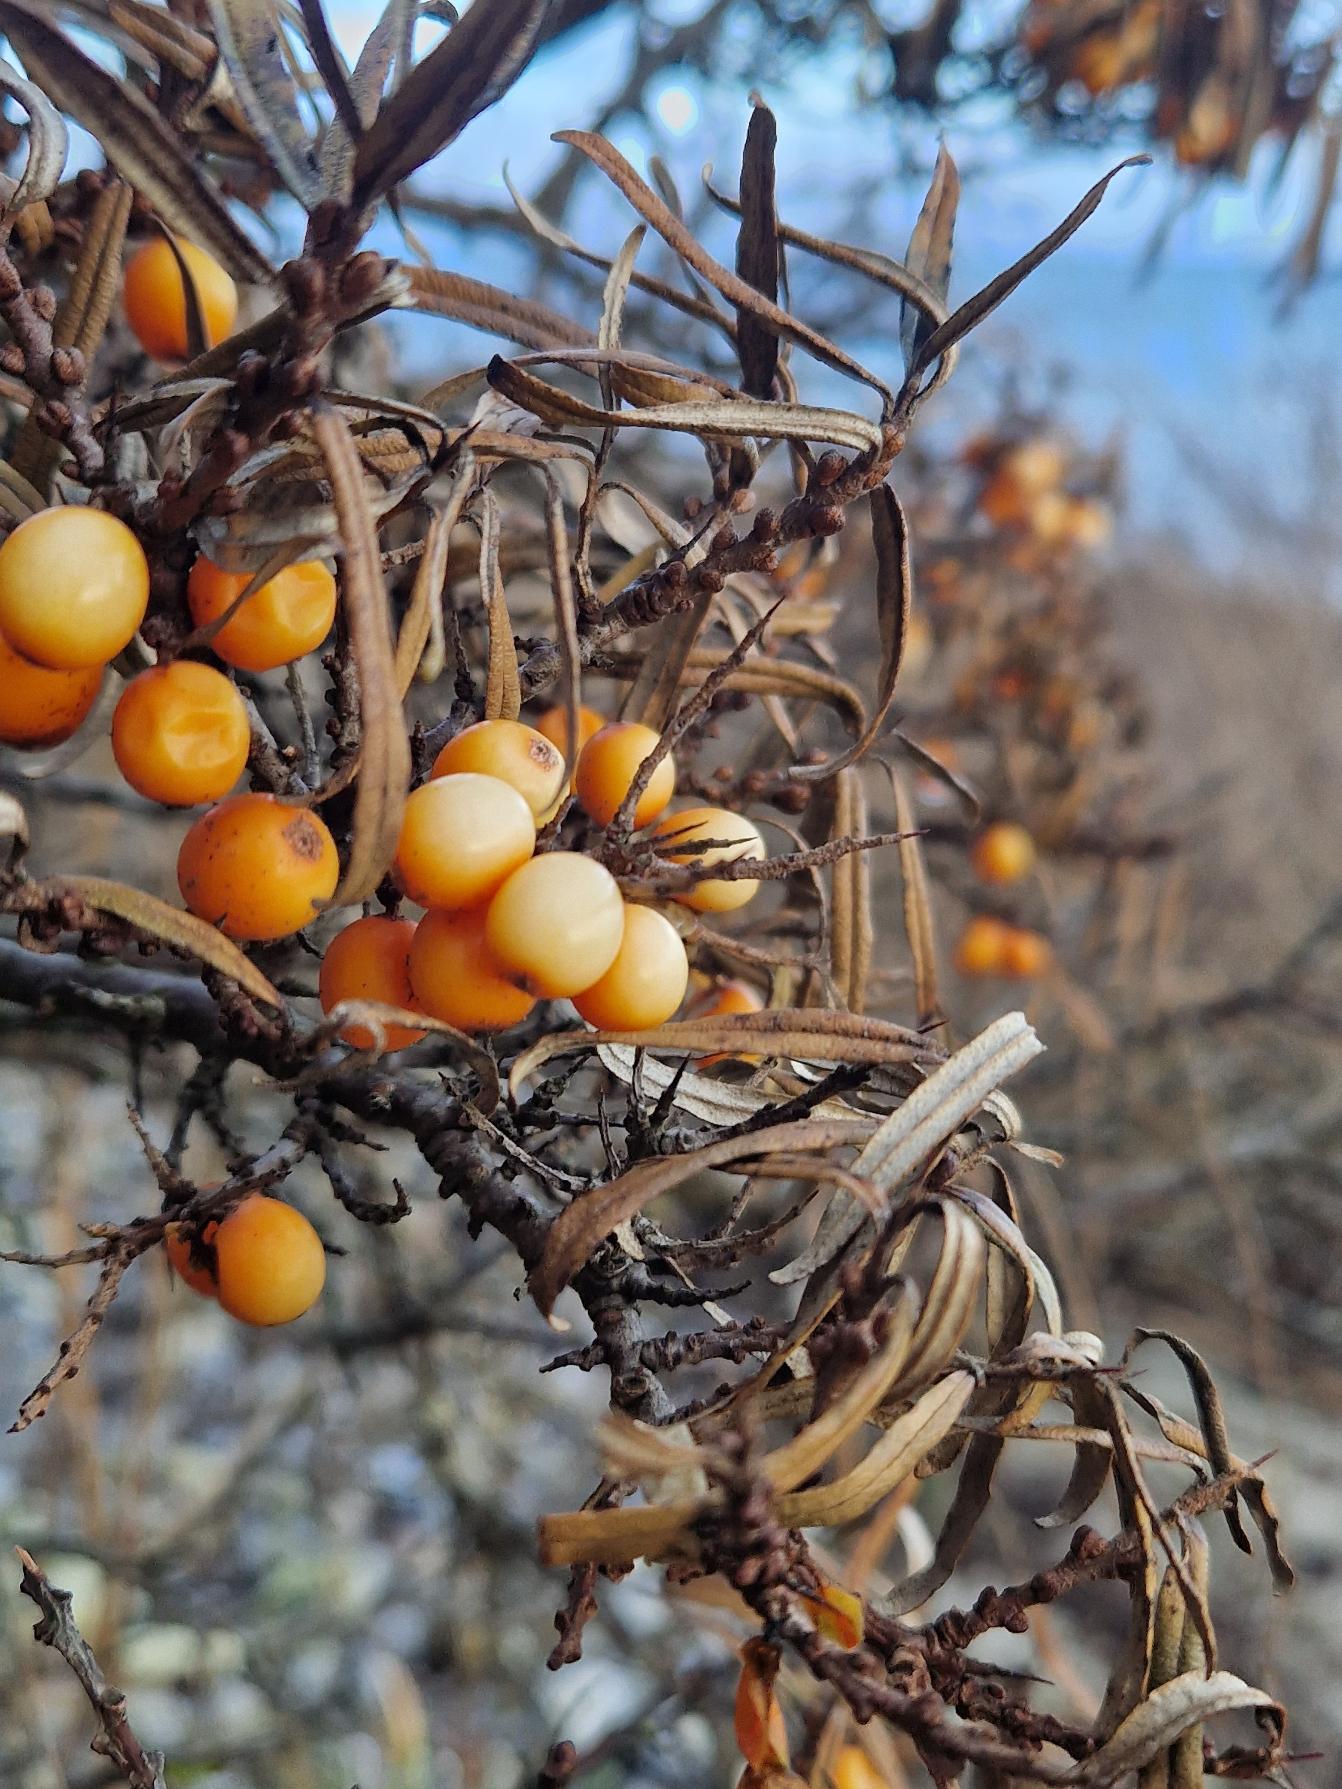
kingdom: Plantae
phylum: Tracheophyta
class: Magnoliopsida
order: Rosales
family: Elaeagnaceae
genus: Hippophae
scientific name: Hippophae rhamnoides
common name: Havtorn
